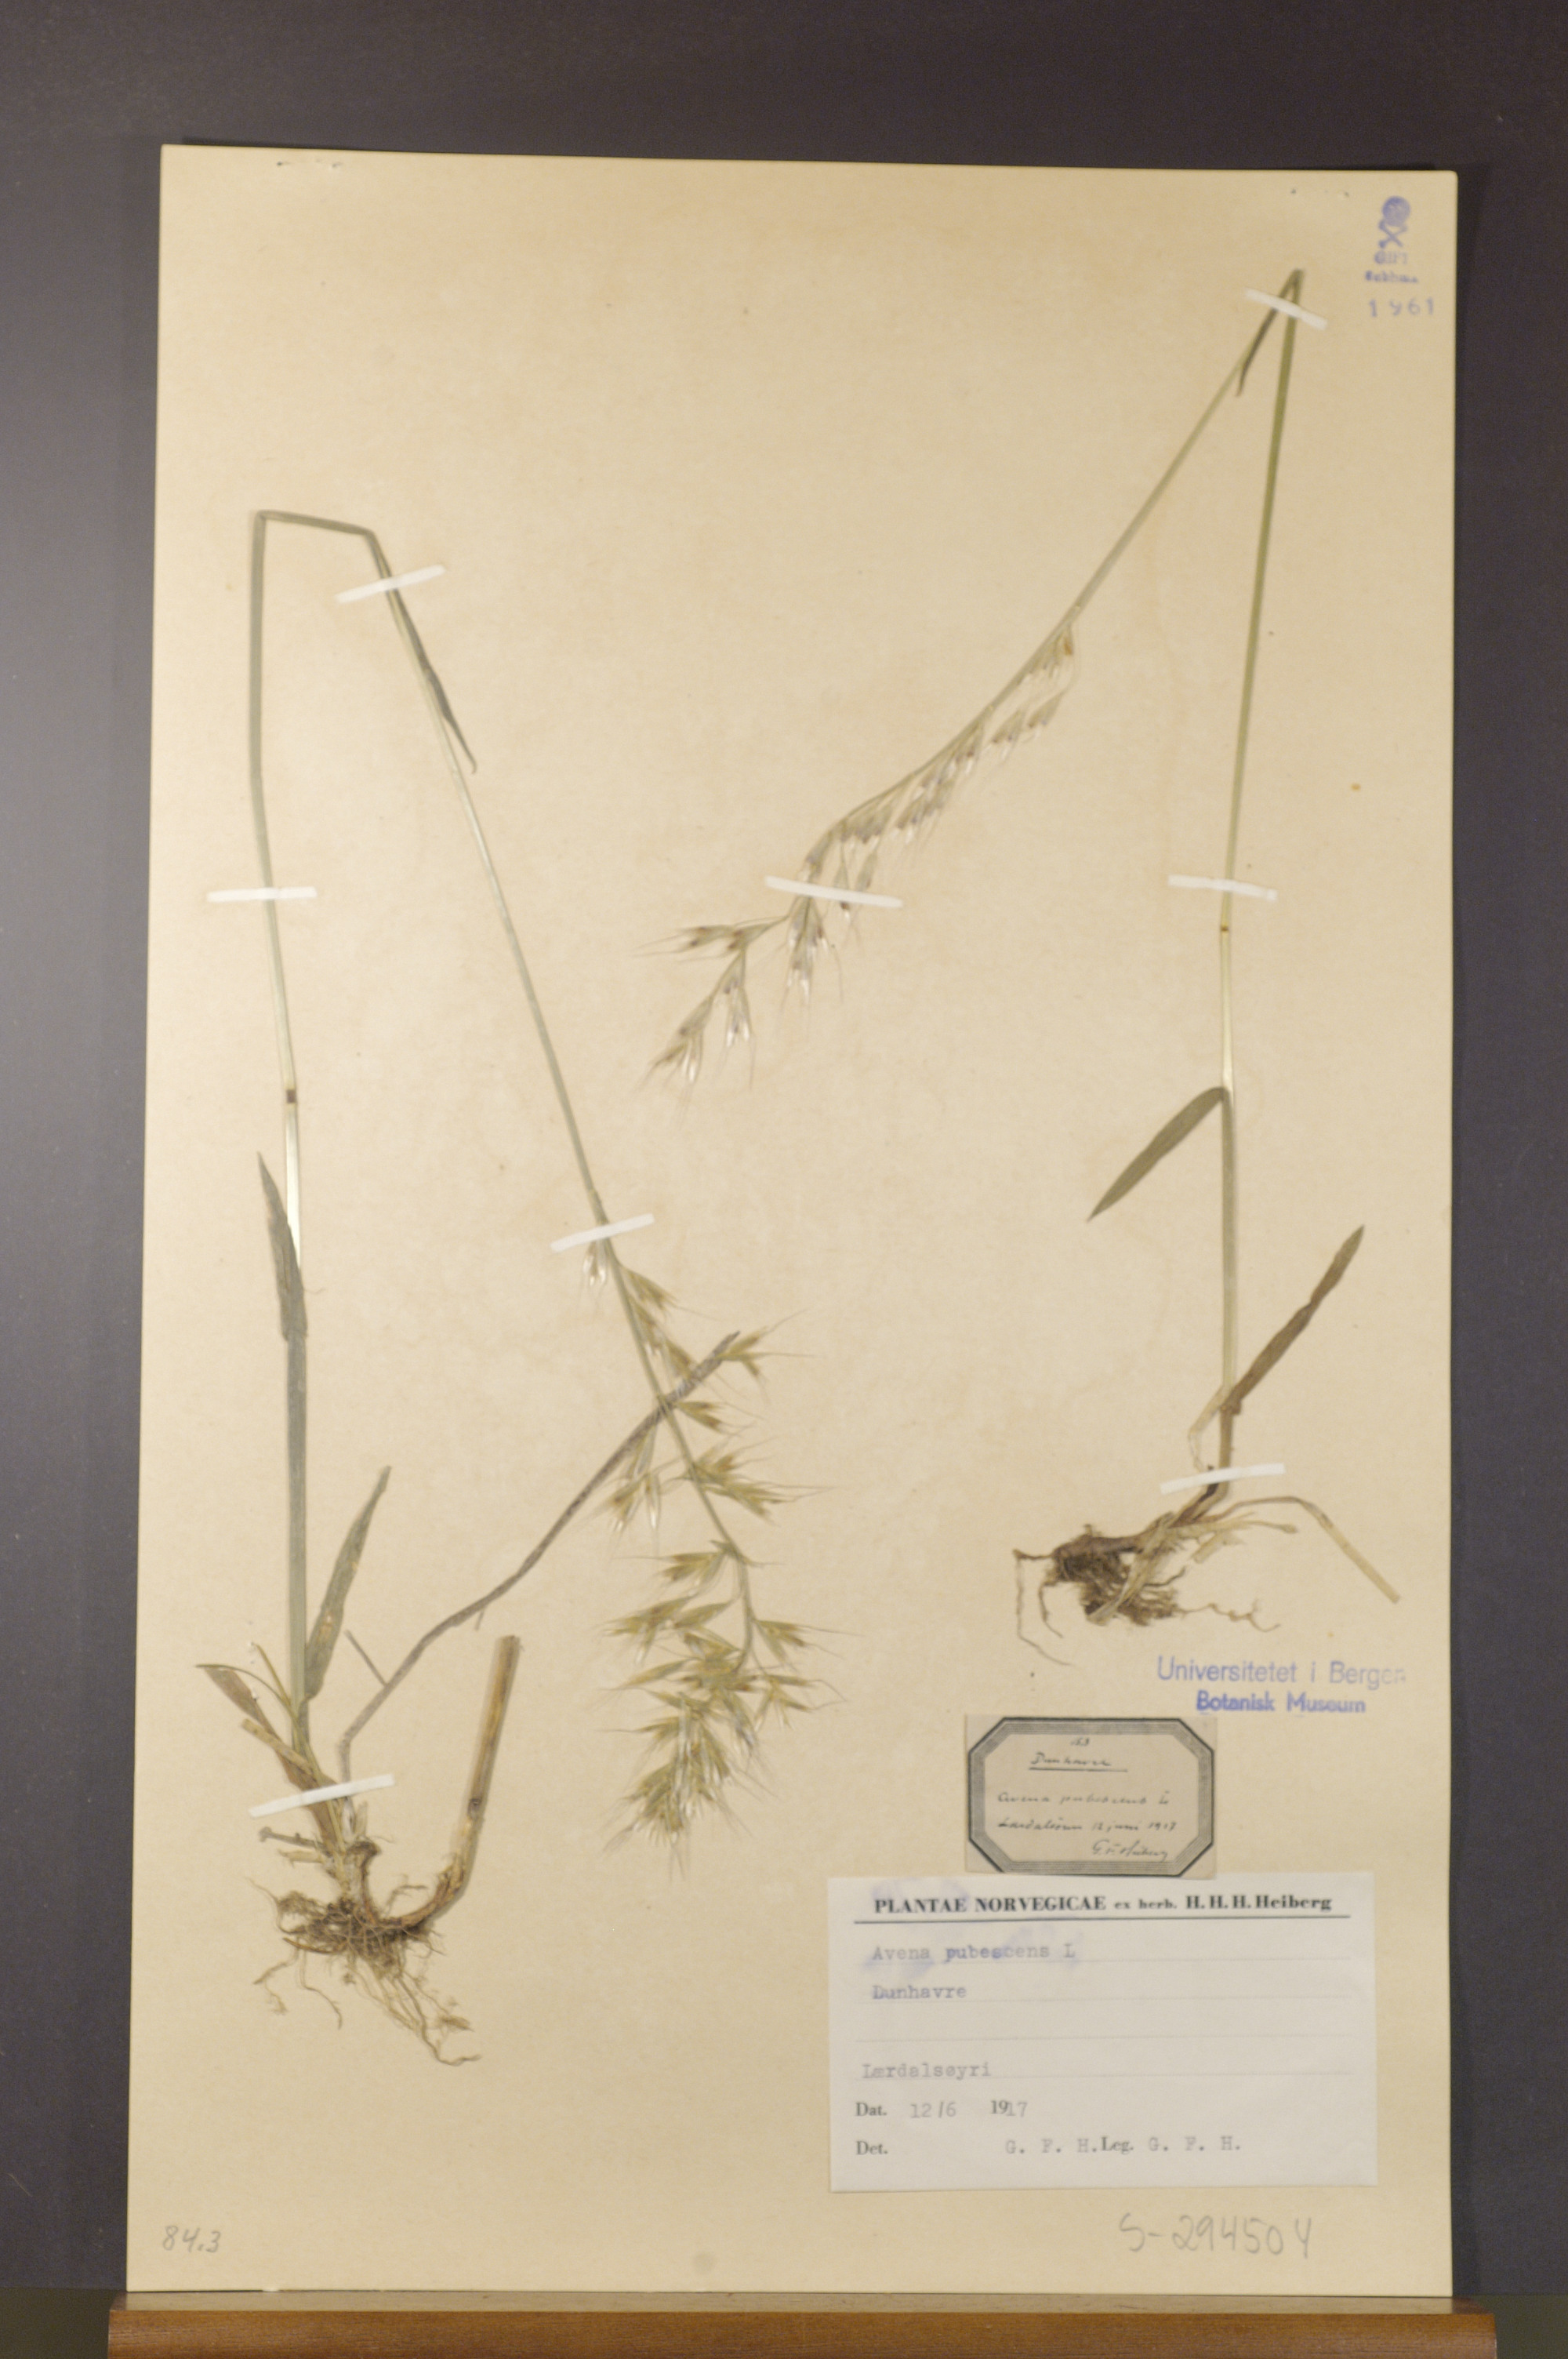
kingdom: Plantae
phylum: Tracheophyta
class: Liliopsida
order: Poales
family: Poaceae
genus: Avenula
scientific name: Avenula pubescens
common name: Downy alpine oatgrass
